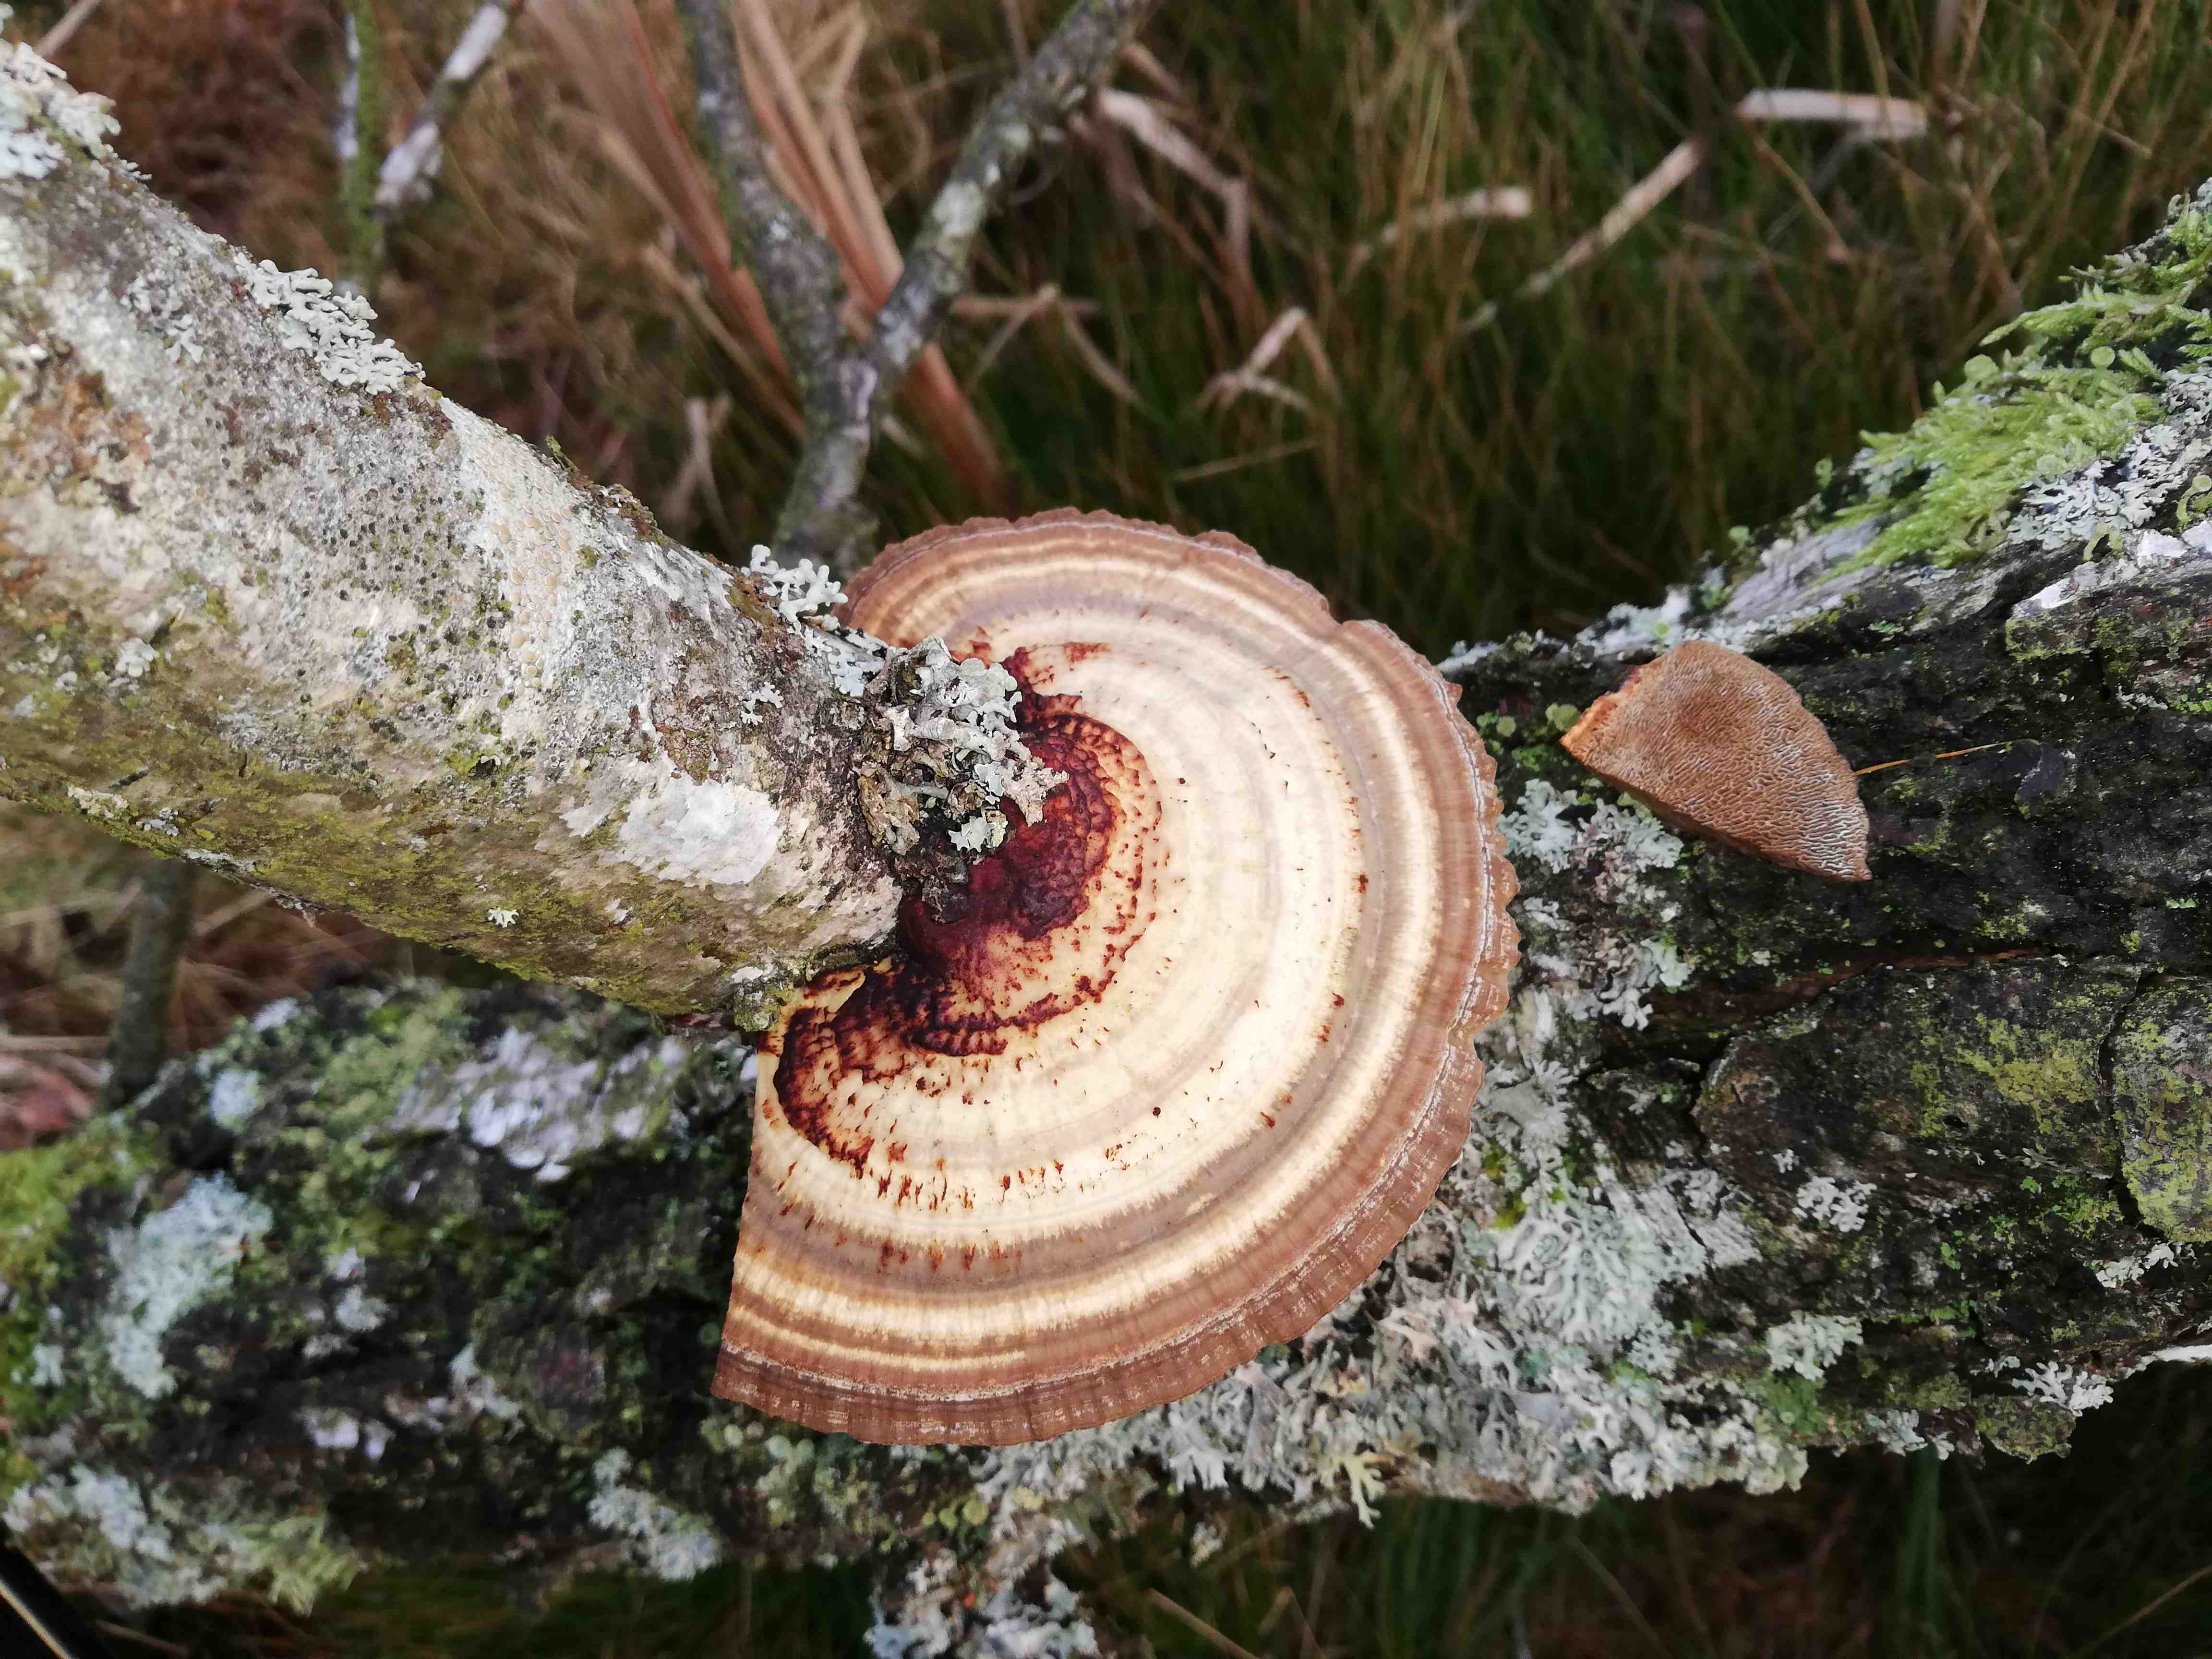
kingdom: Fungi
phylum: Basidiomycota
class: Agaricomycetes
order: Polyporales
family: Polyporaceae
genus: Daedaleopsis
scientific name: Daedaleopsis confragosa
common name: rødmende læderporesvamp
